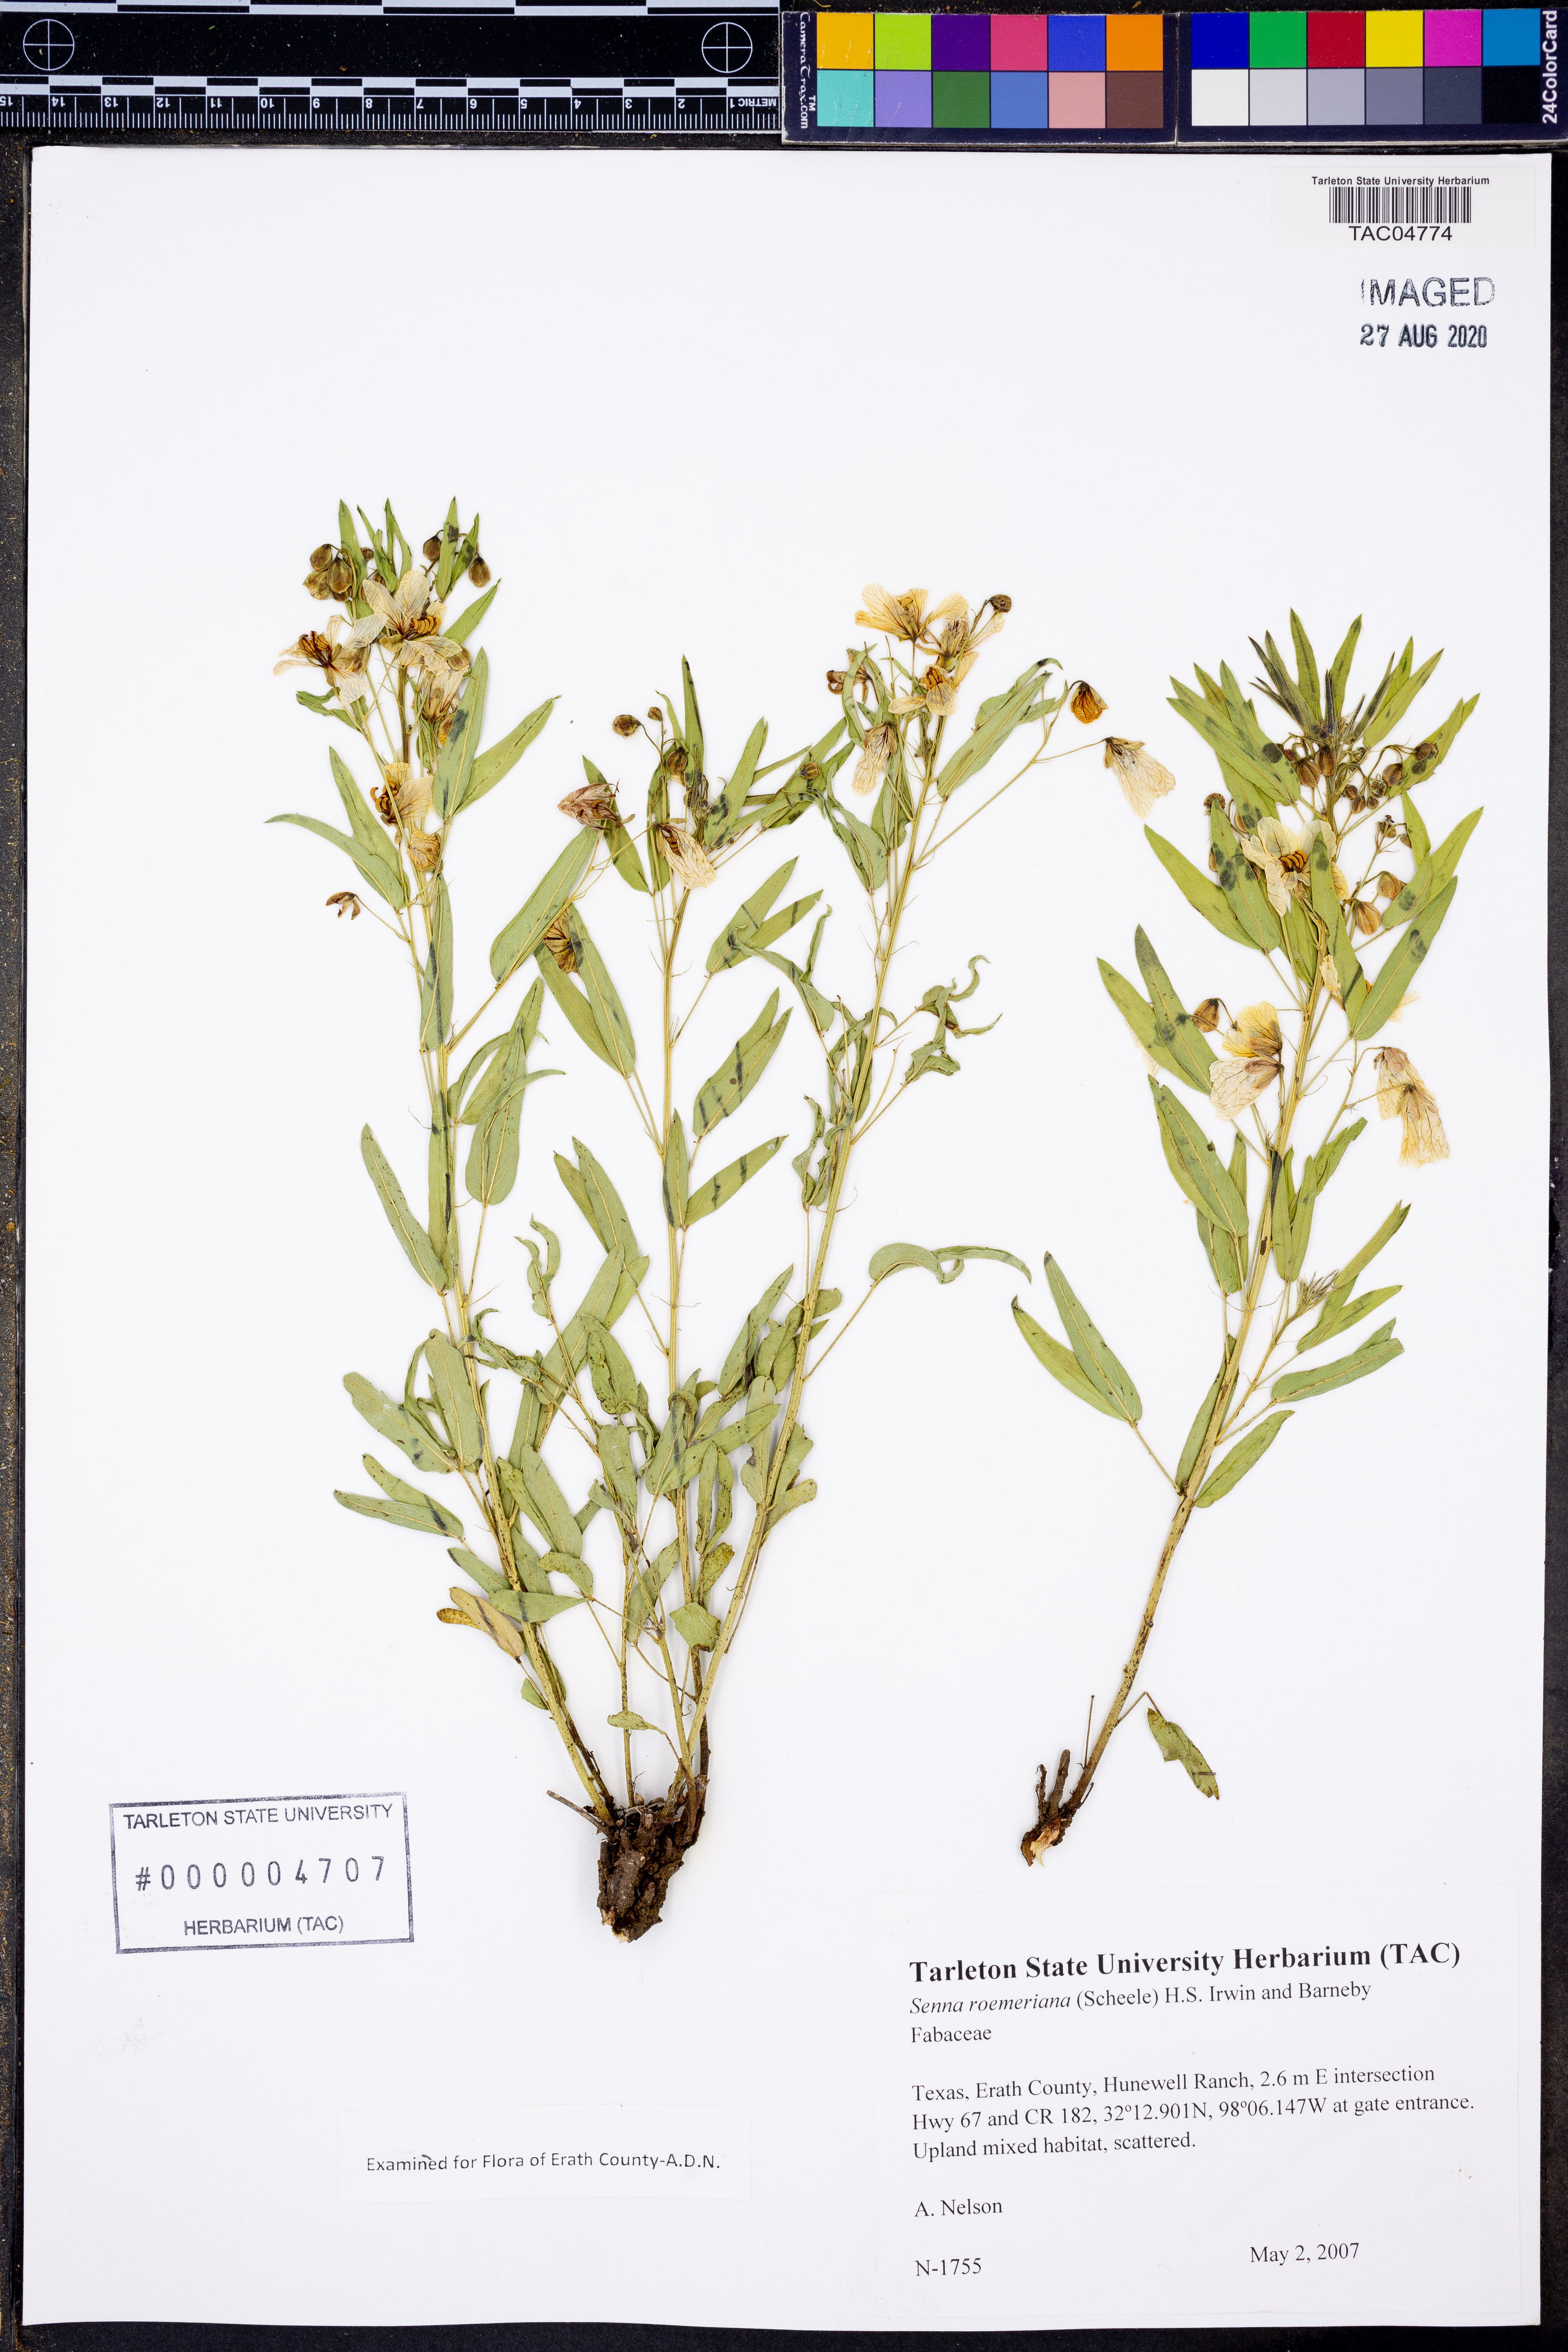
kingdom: Plantae
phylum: Tracheophyta
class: Magnoliopsida
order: Fabales
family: Fabaceae
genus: Senna
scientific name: Senna roemeriana
